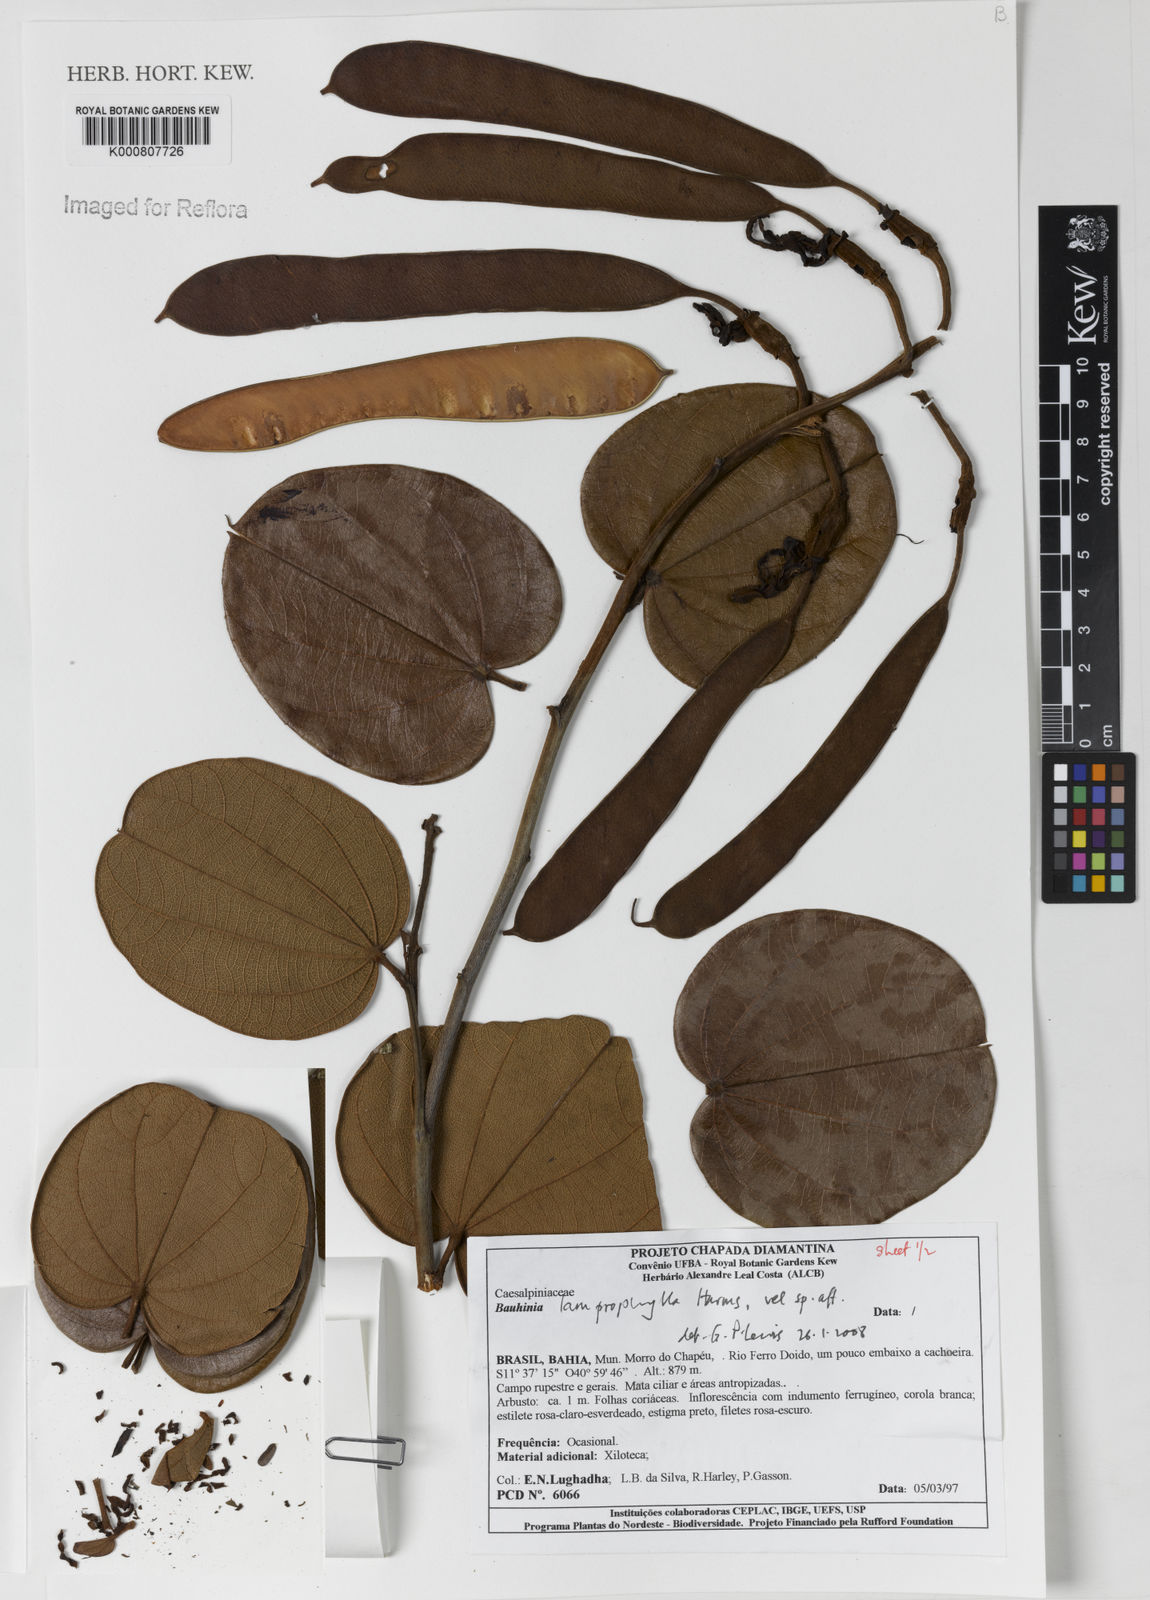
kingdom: Plantae
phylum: Tracheophyta
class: Magnoliopsida
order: Fabales
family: Fabaceae
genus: Bauhinia
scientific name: Bauhinia acuruana
